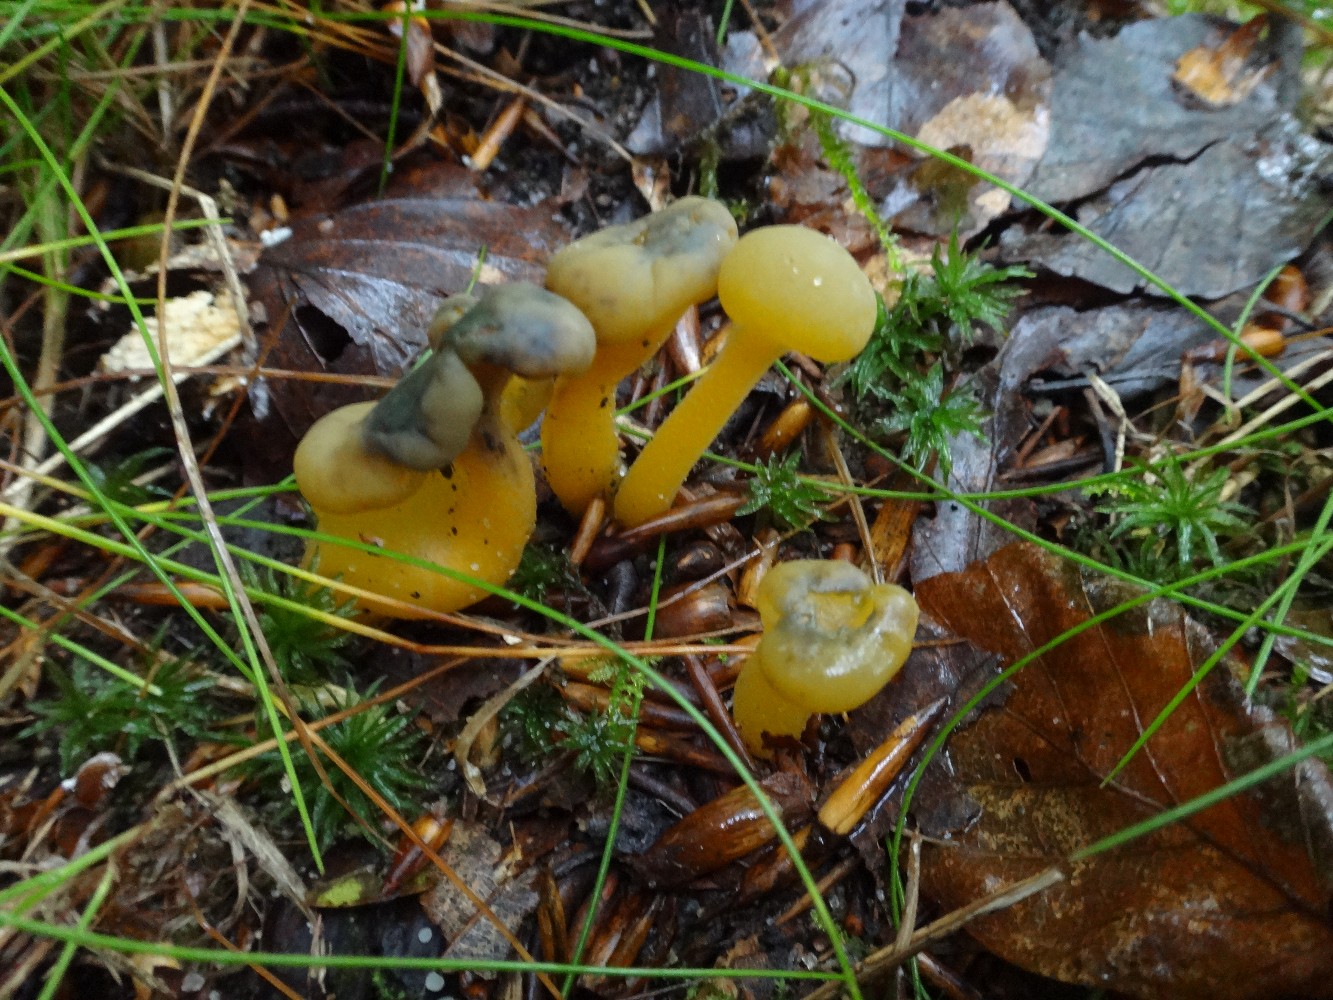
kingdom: Fungi
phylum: Ascomycota
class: Leotiomycetes
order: Leotiales
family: Leotiaceae
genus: Leotia
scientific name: Leotia lubrica
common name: ravsvamp
